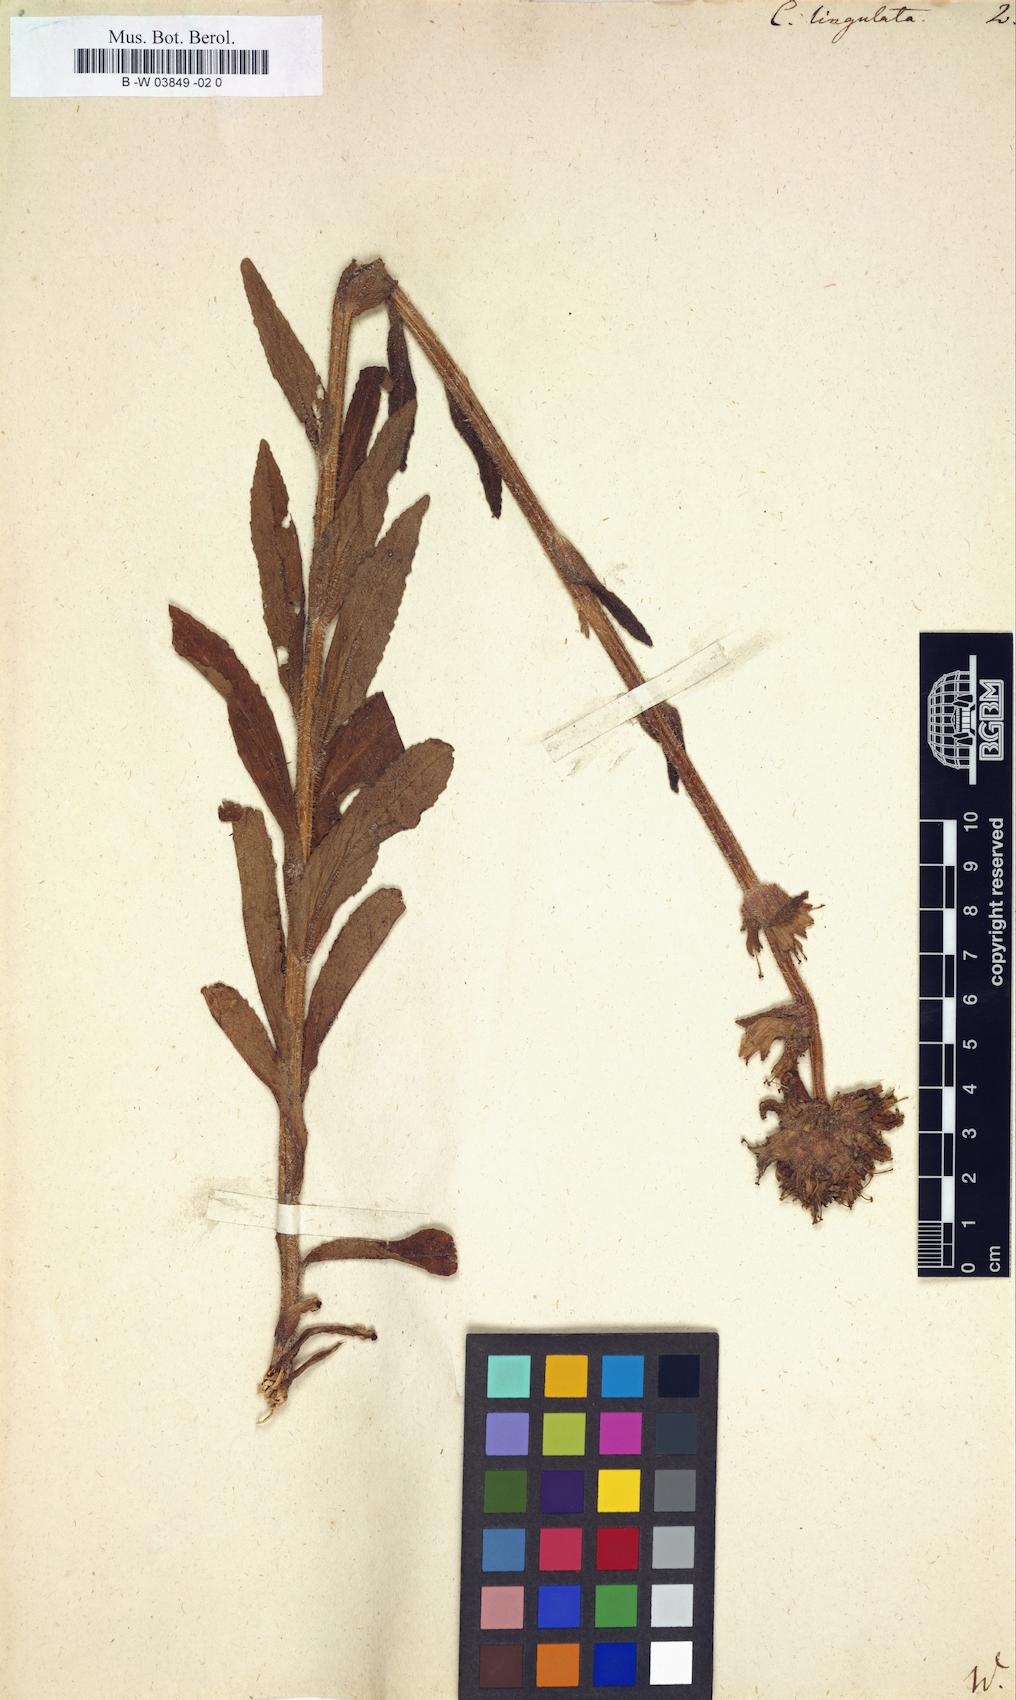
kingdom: Plantae
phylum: Tracheophyta
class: Magnoliopsida
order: Asterales
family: Campanulaceae
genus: Campanula
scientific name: Campanula lingulata
